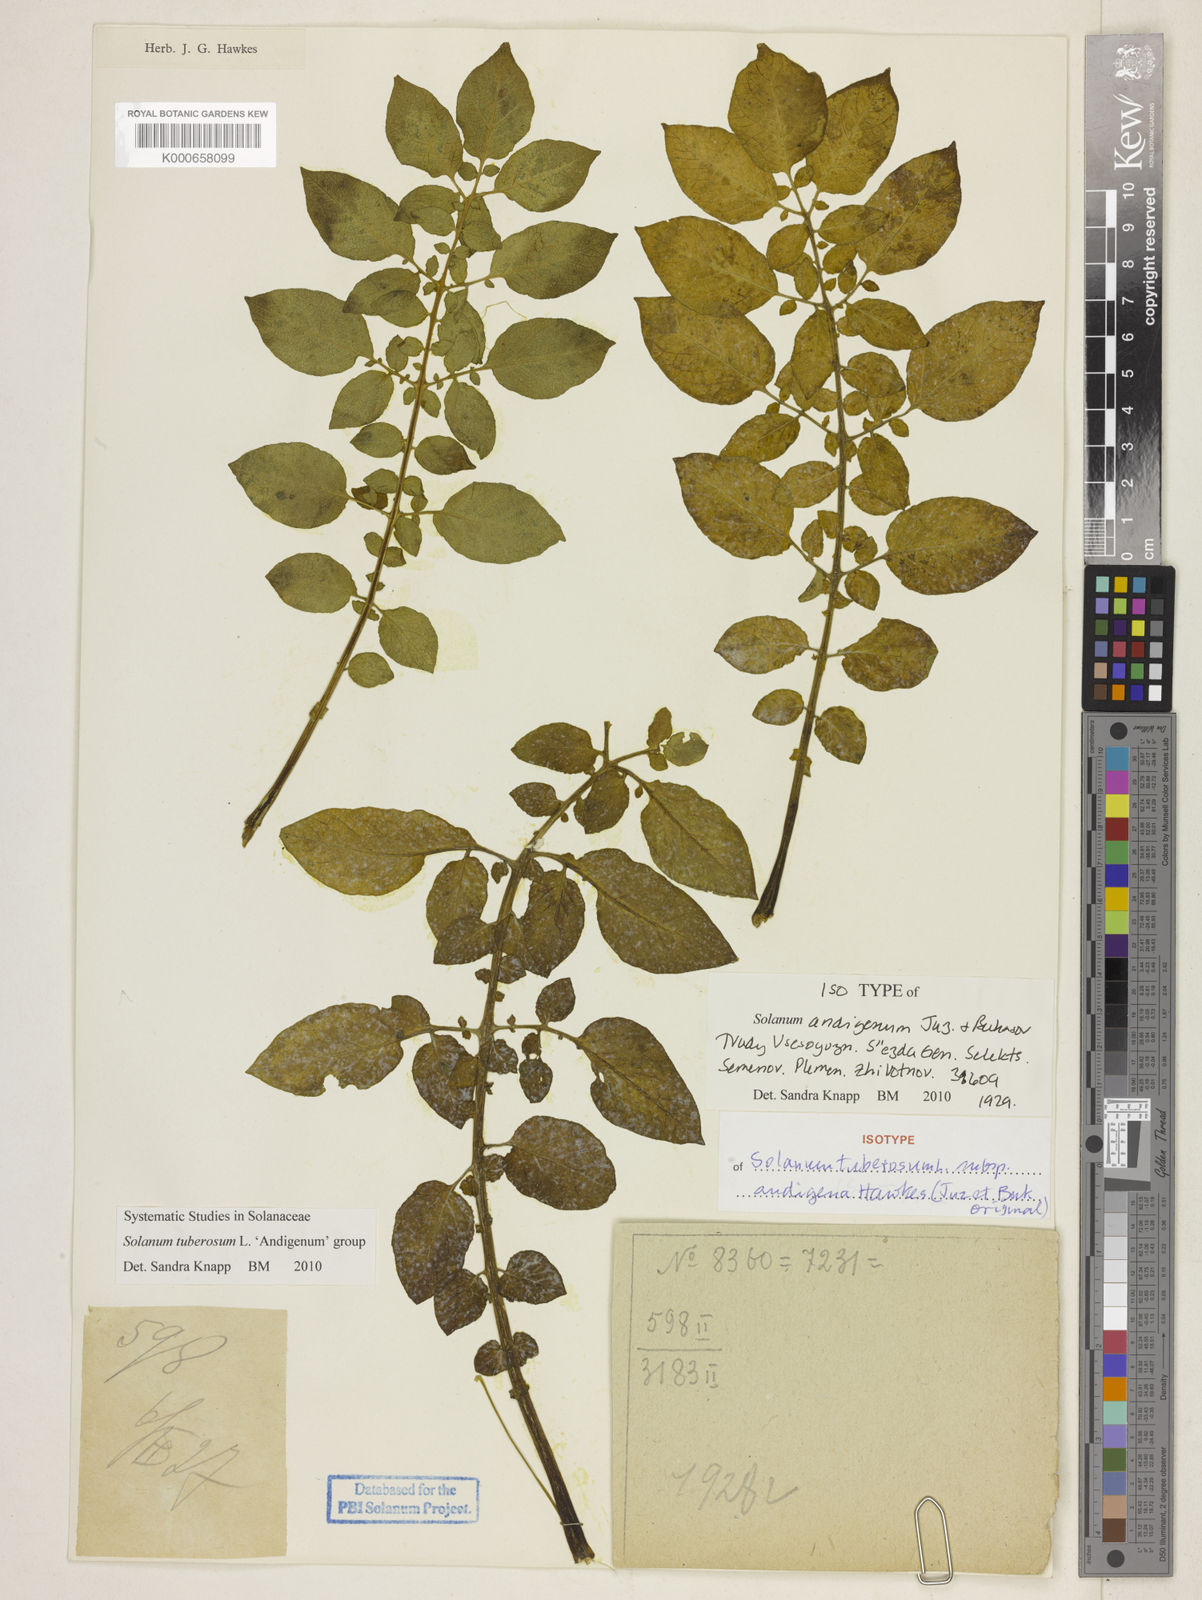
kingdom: Plantae
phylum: Tracheophyta
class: Magnoliopsida
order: Solanales
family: Solanaceae
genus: Solanum
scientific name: Solanum tuberosum
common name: Potato
